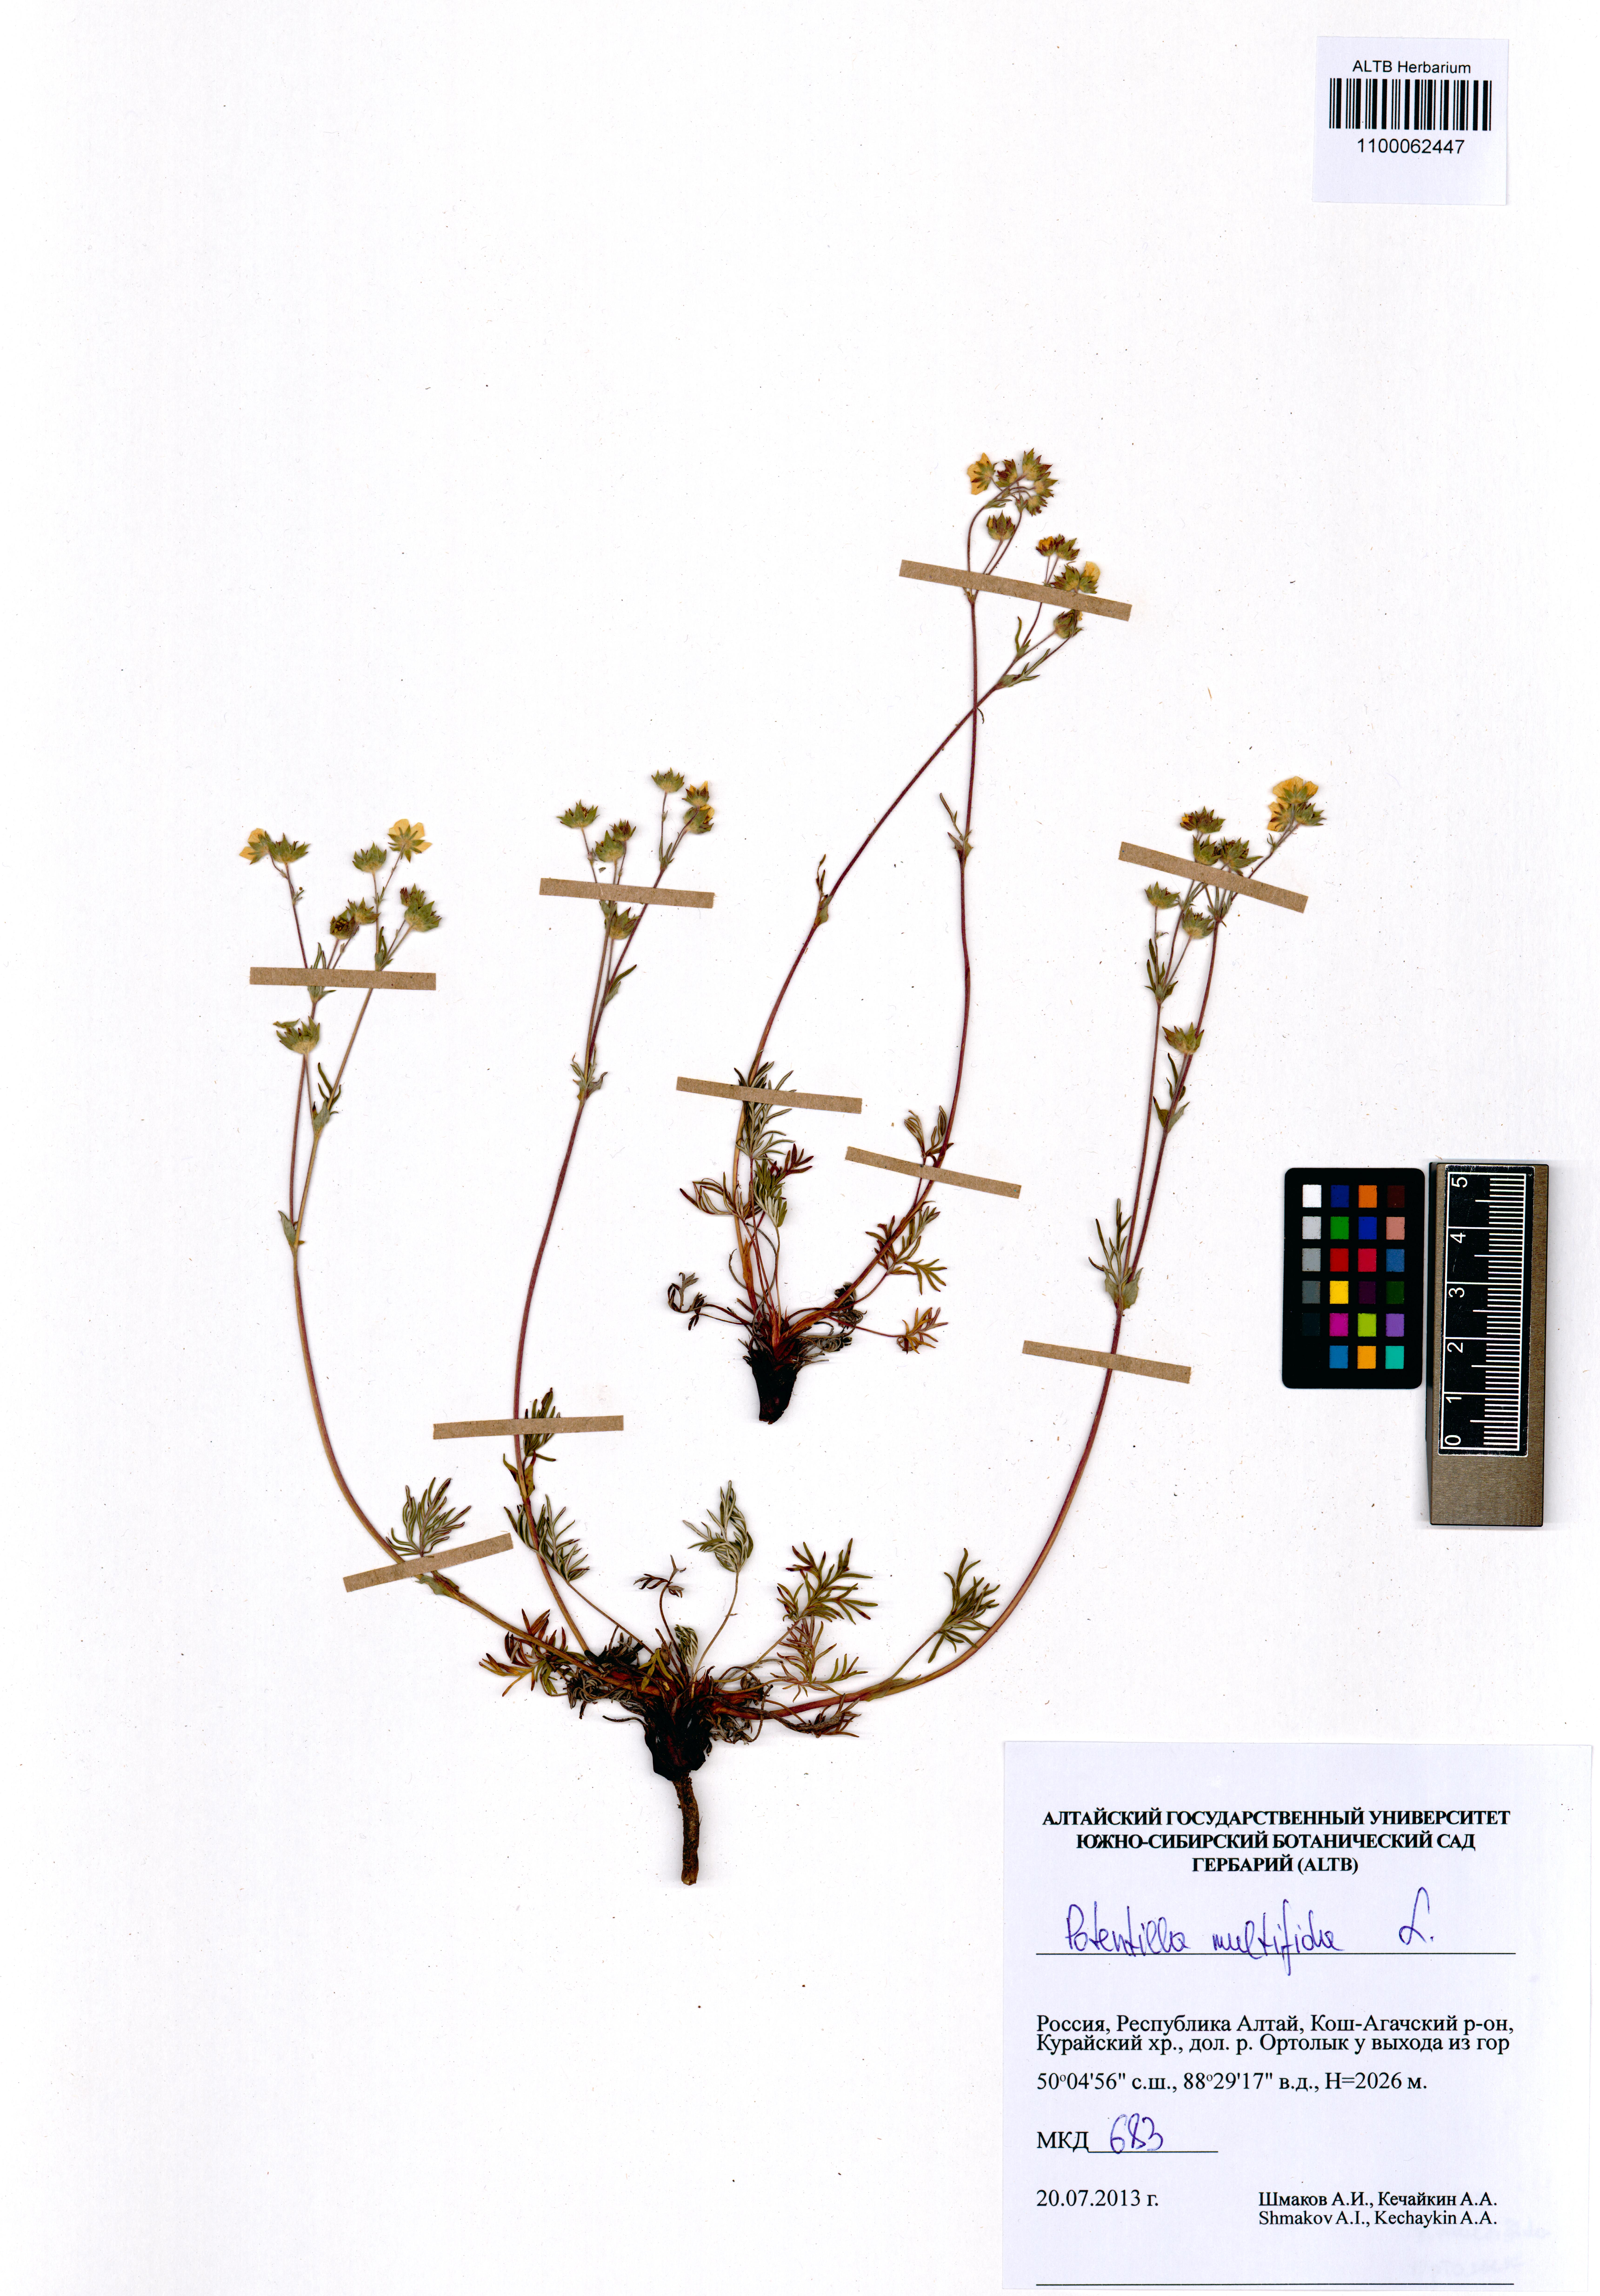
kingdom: Plantae
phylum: Tracheophyta
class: Magnoliopsida
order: Rosales
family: Rosaceae
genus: Potentilla
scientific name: Potentilla multifida
